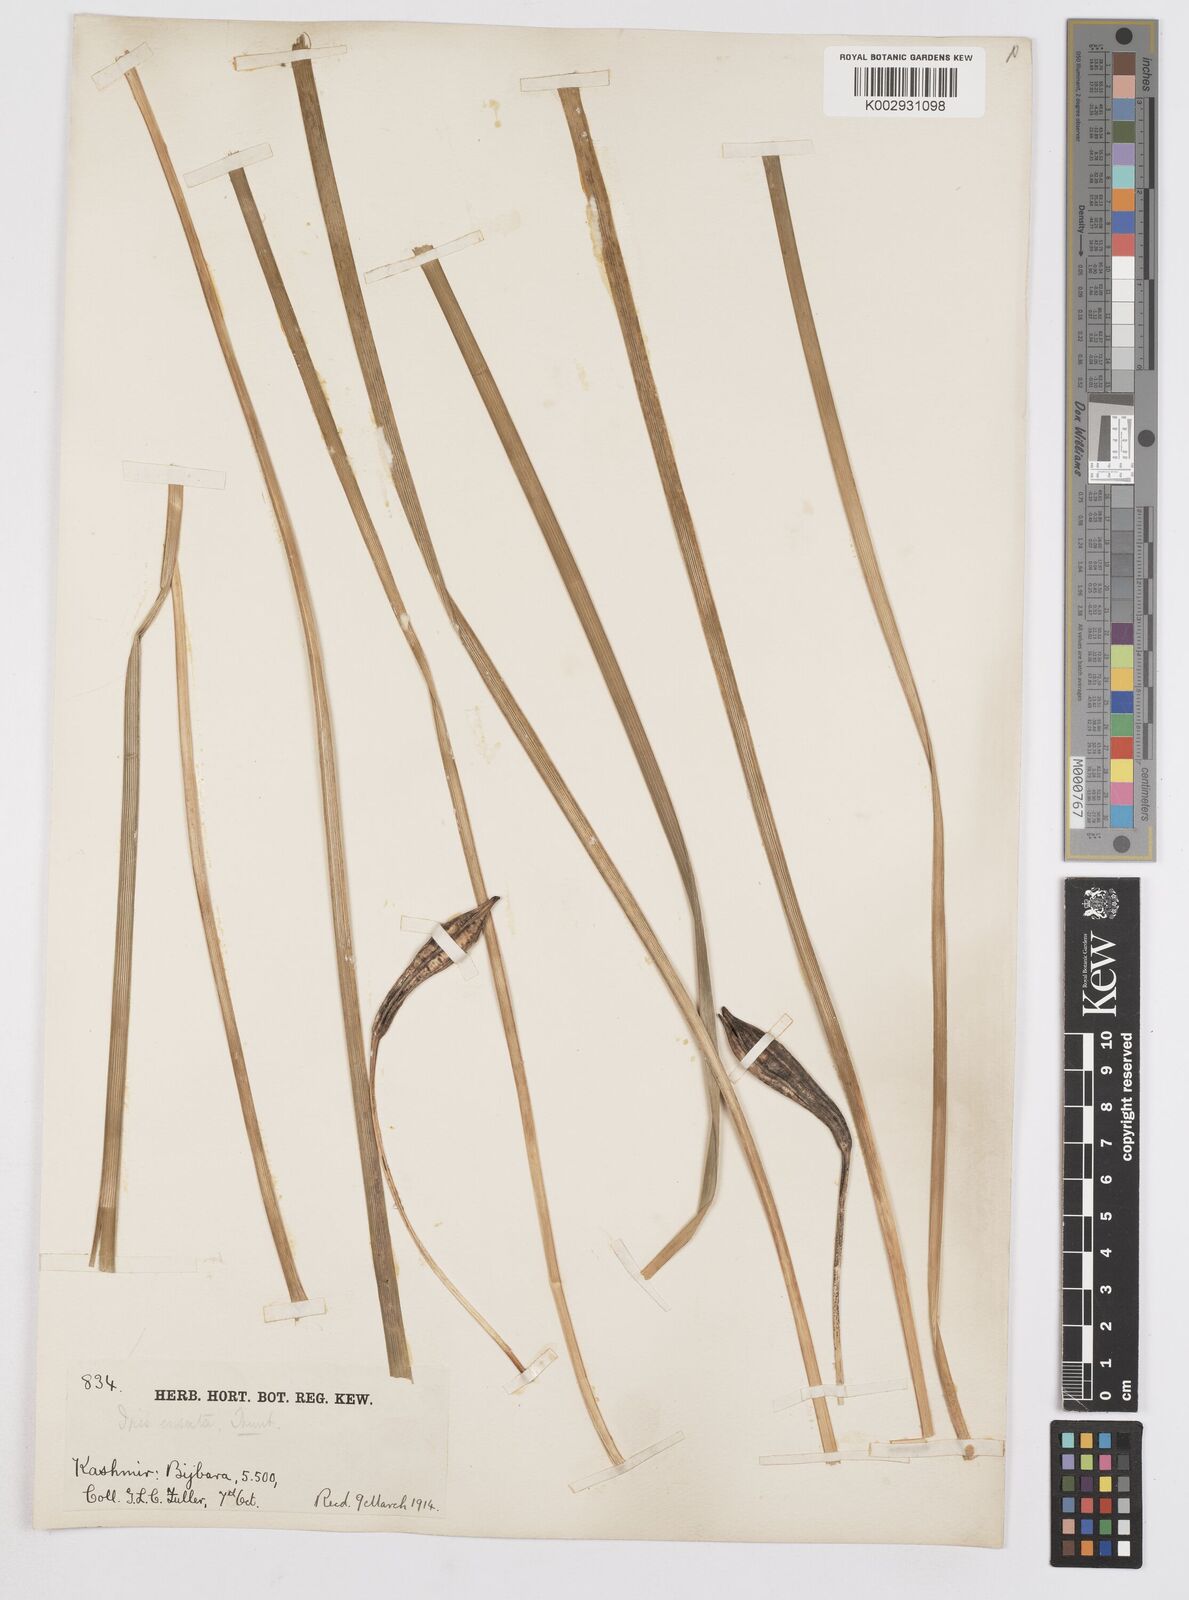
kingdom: Plantae
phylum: Tracheophyta
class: Liliopsida
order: Asparagales
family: Iridaceae
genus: Iris
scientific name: Iris ensata
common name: Beaked iris
